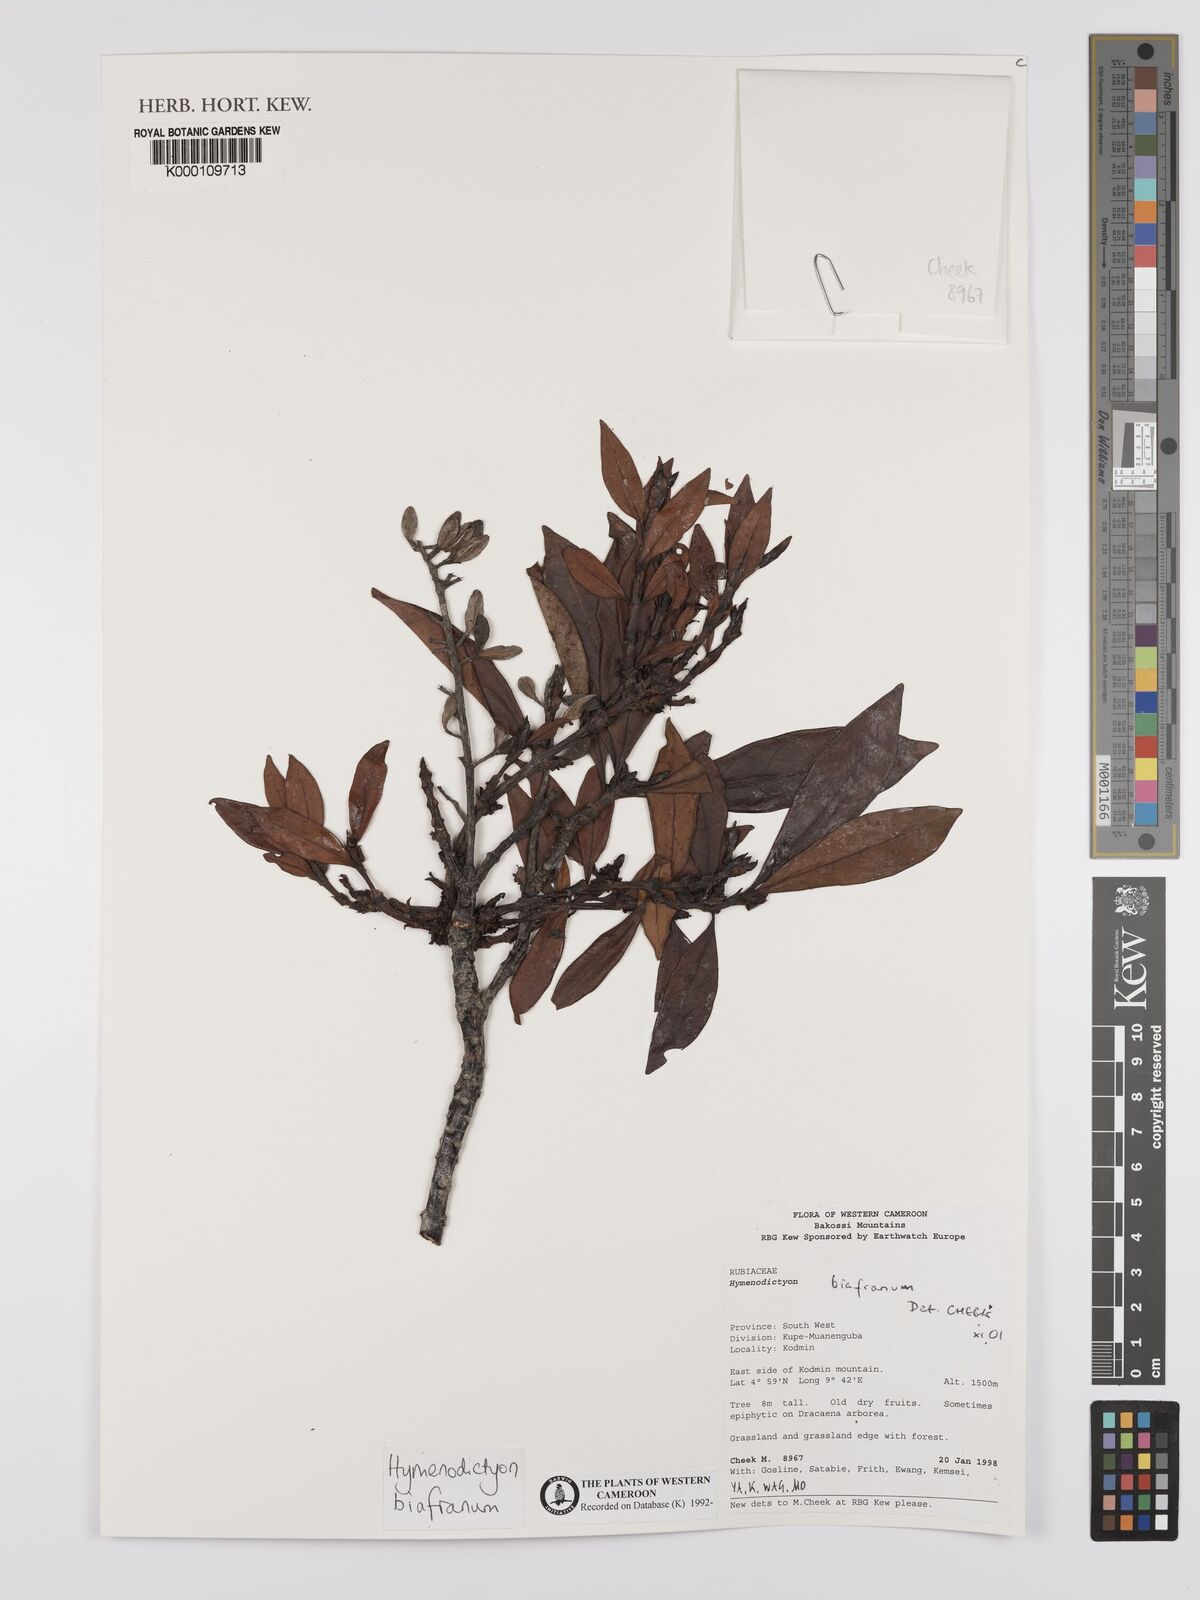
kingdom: Plantae
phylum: Tracheophyta
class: Magnoliopsida
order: Gentianales
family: Rubiaceae
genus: Hymenodictyon
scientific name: Hymenodictyon biafranum
